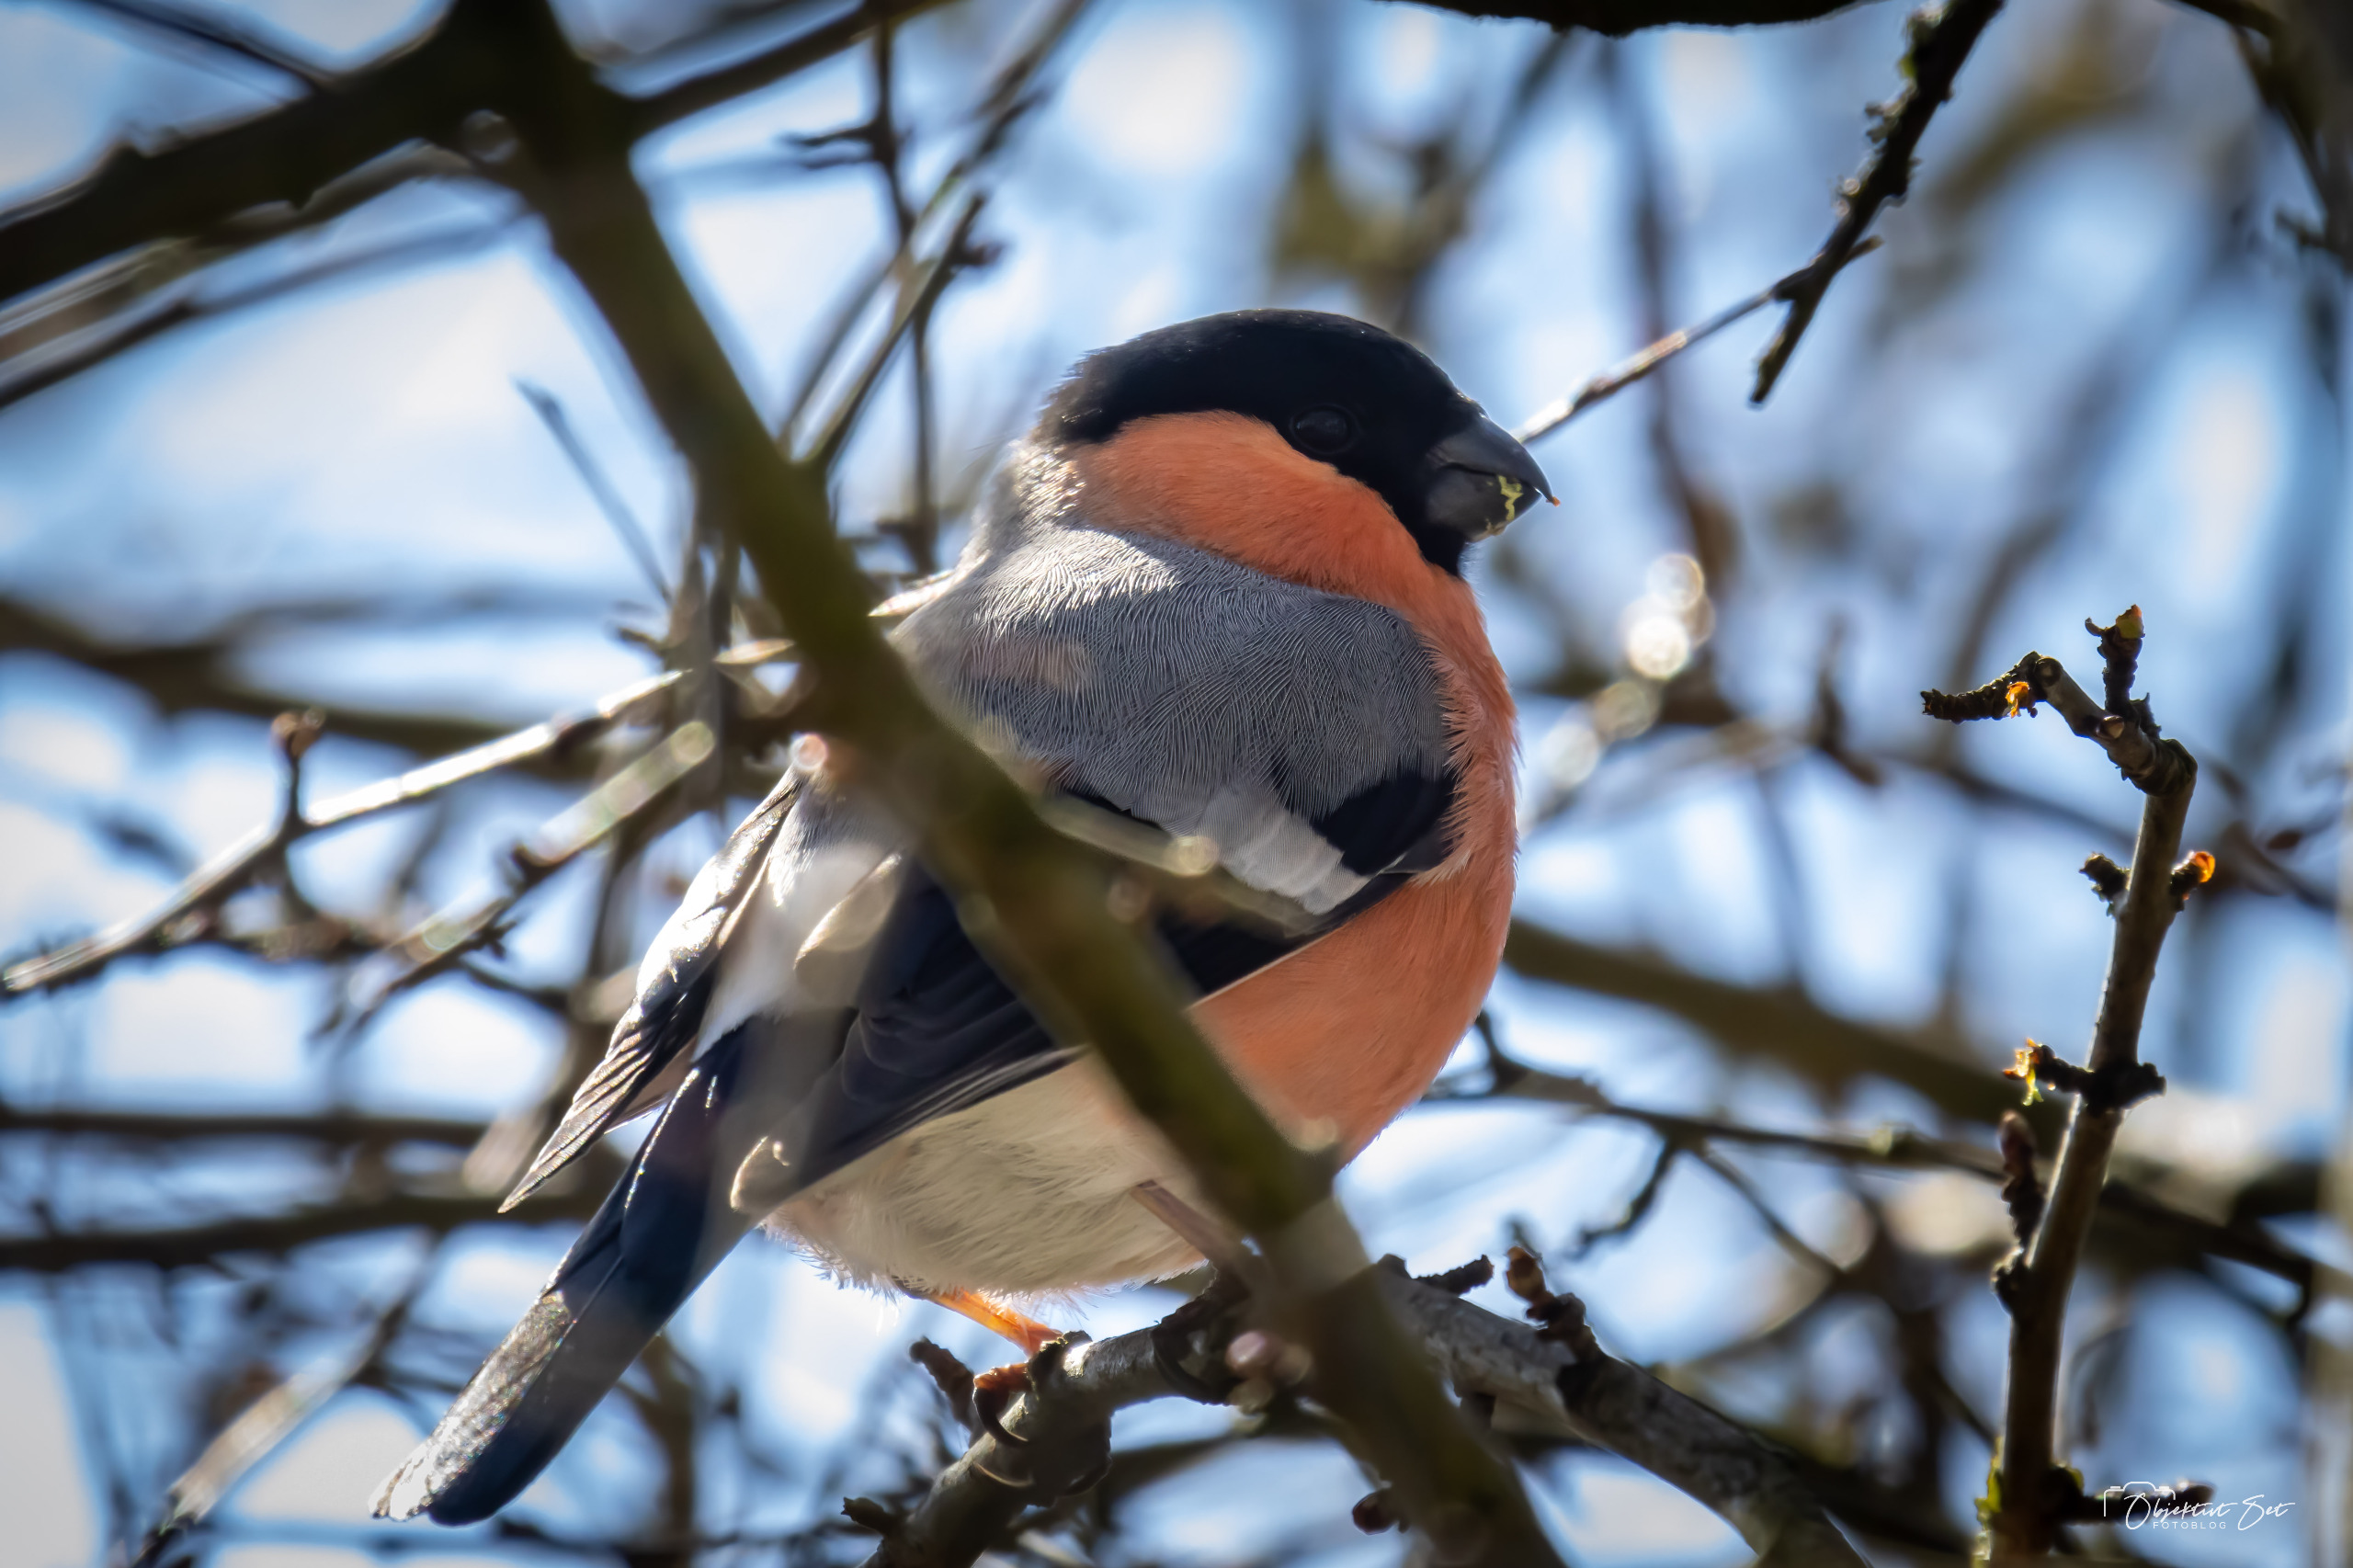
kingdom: Animalia
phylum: Chordata
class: Aves
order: Passeriformes
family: Fringillidae
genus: Pyrrhula
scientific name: Pyrrhula pyrrhula
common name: Dompap
